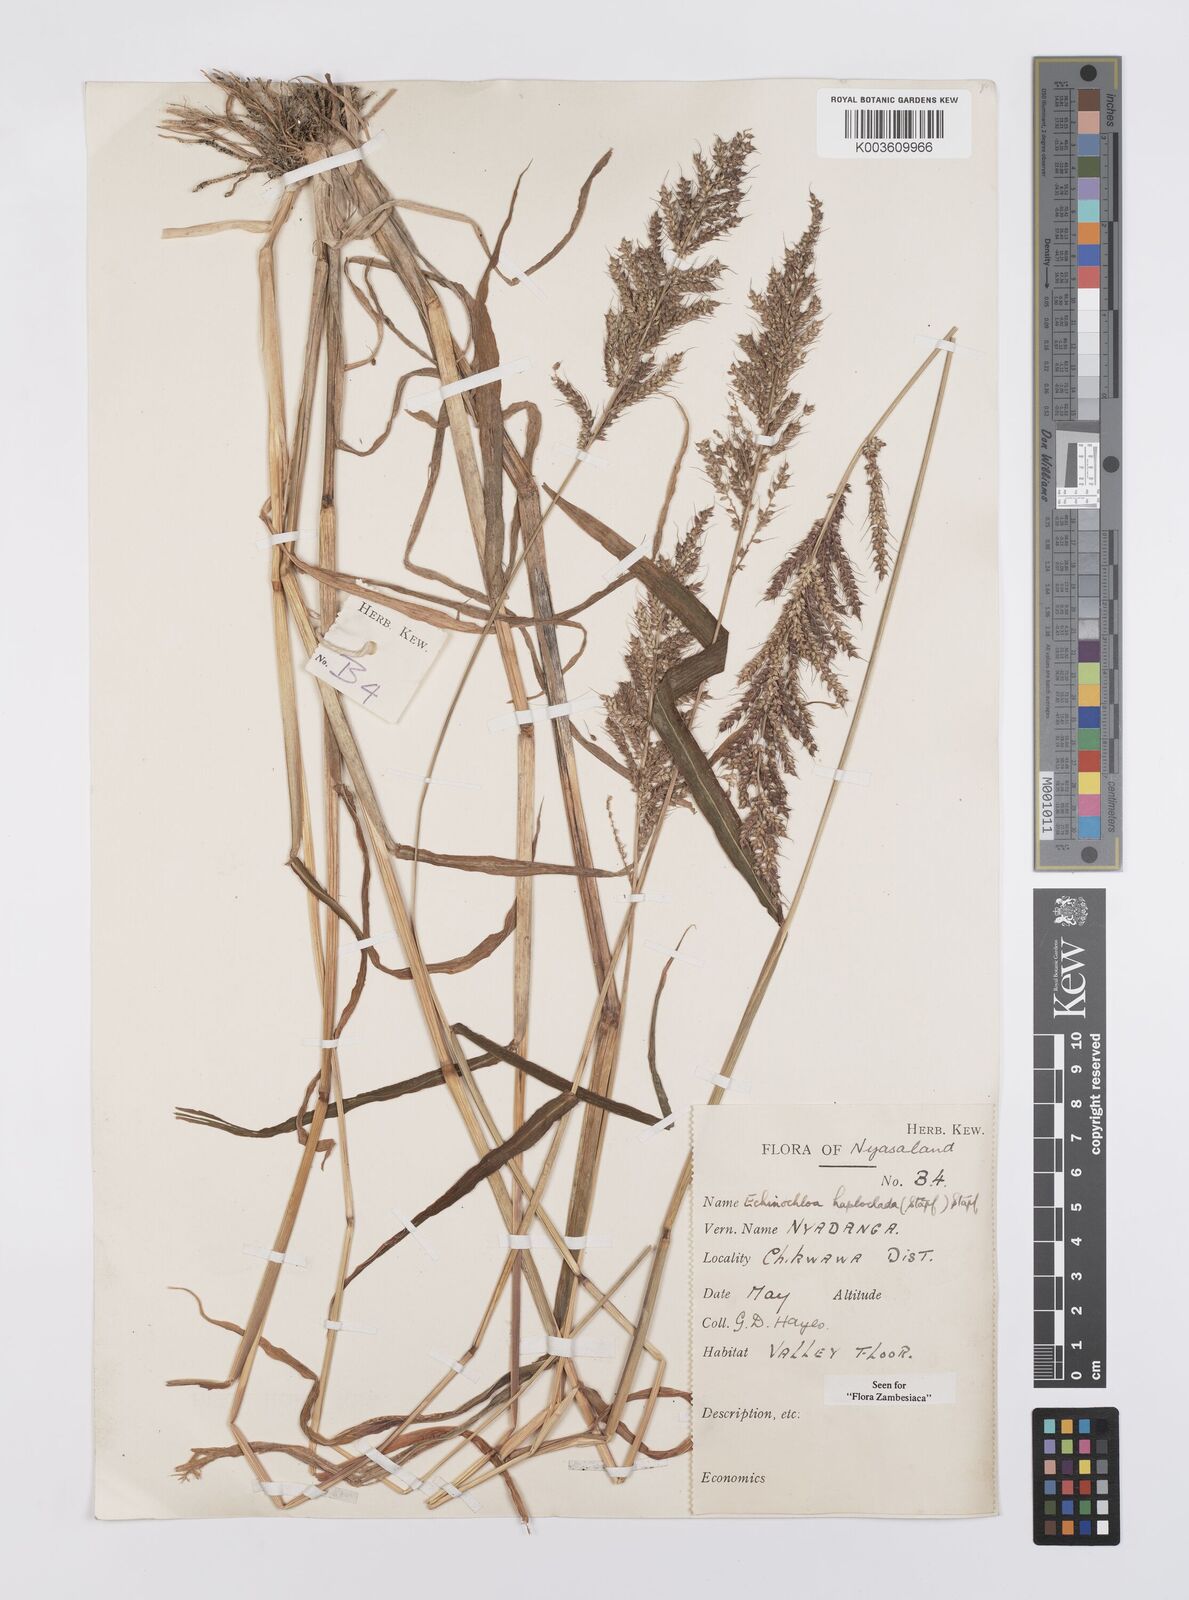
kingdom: Plantae
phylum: Tracheophyta
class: Liliopsida
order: Poales
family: Poaceae
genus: Echinochloa
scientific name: Echinochloa haploclada
